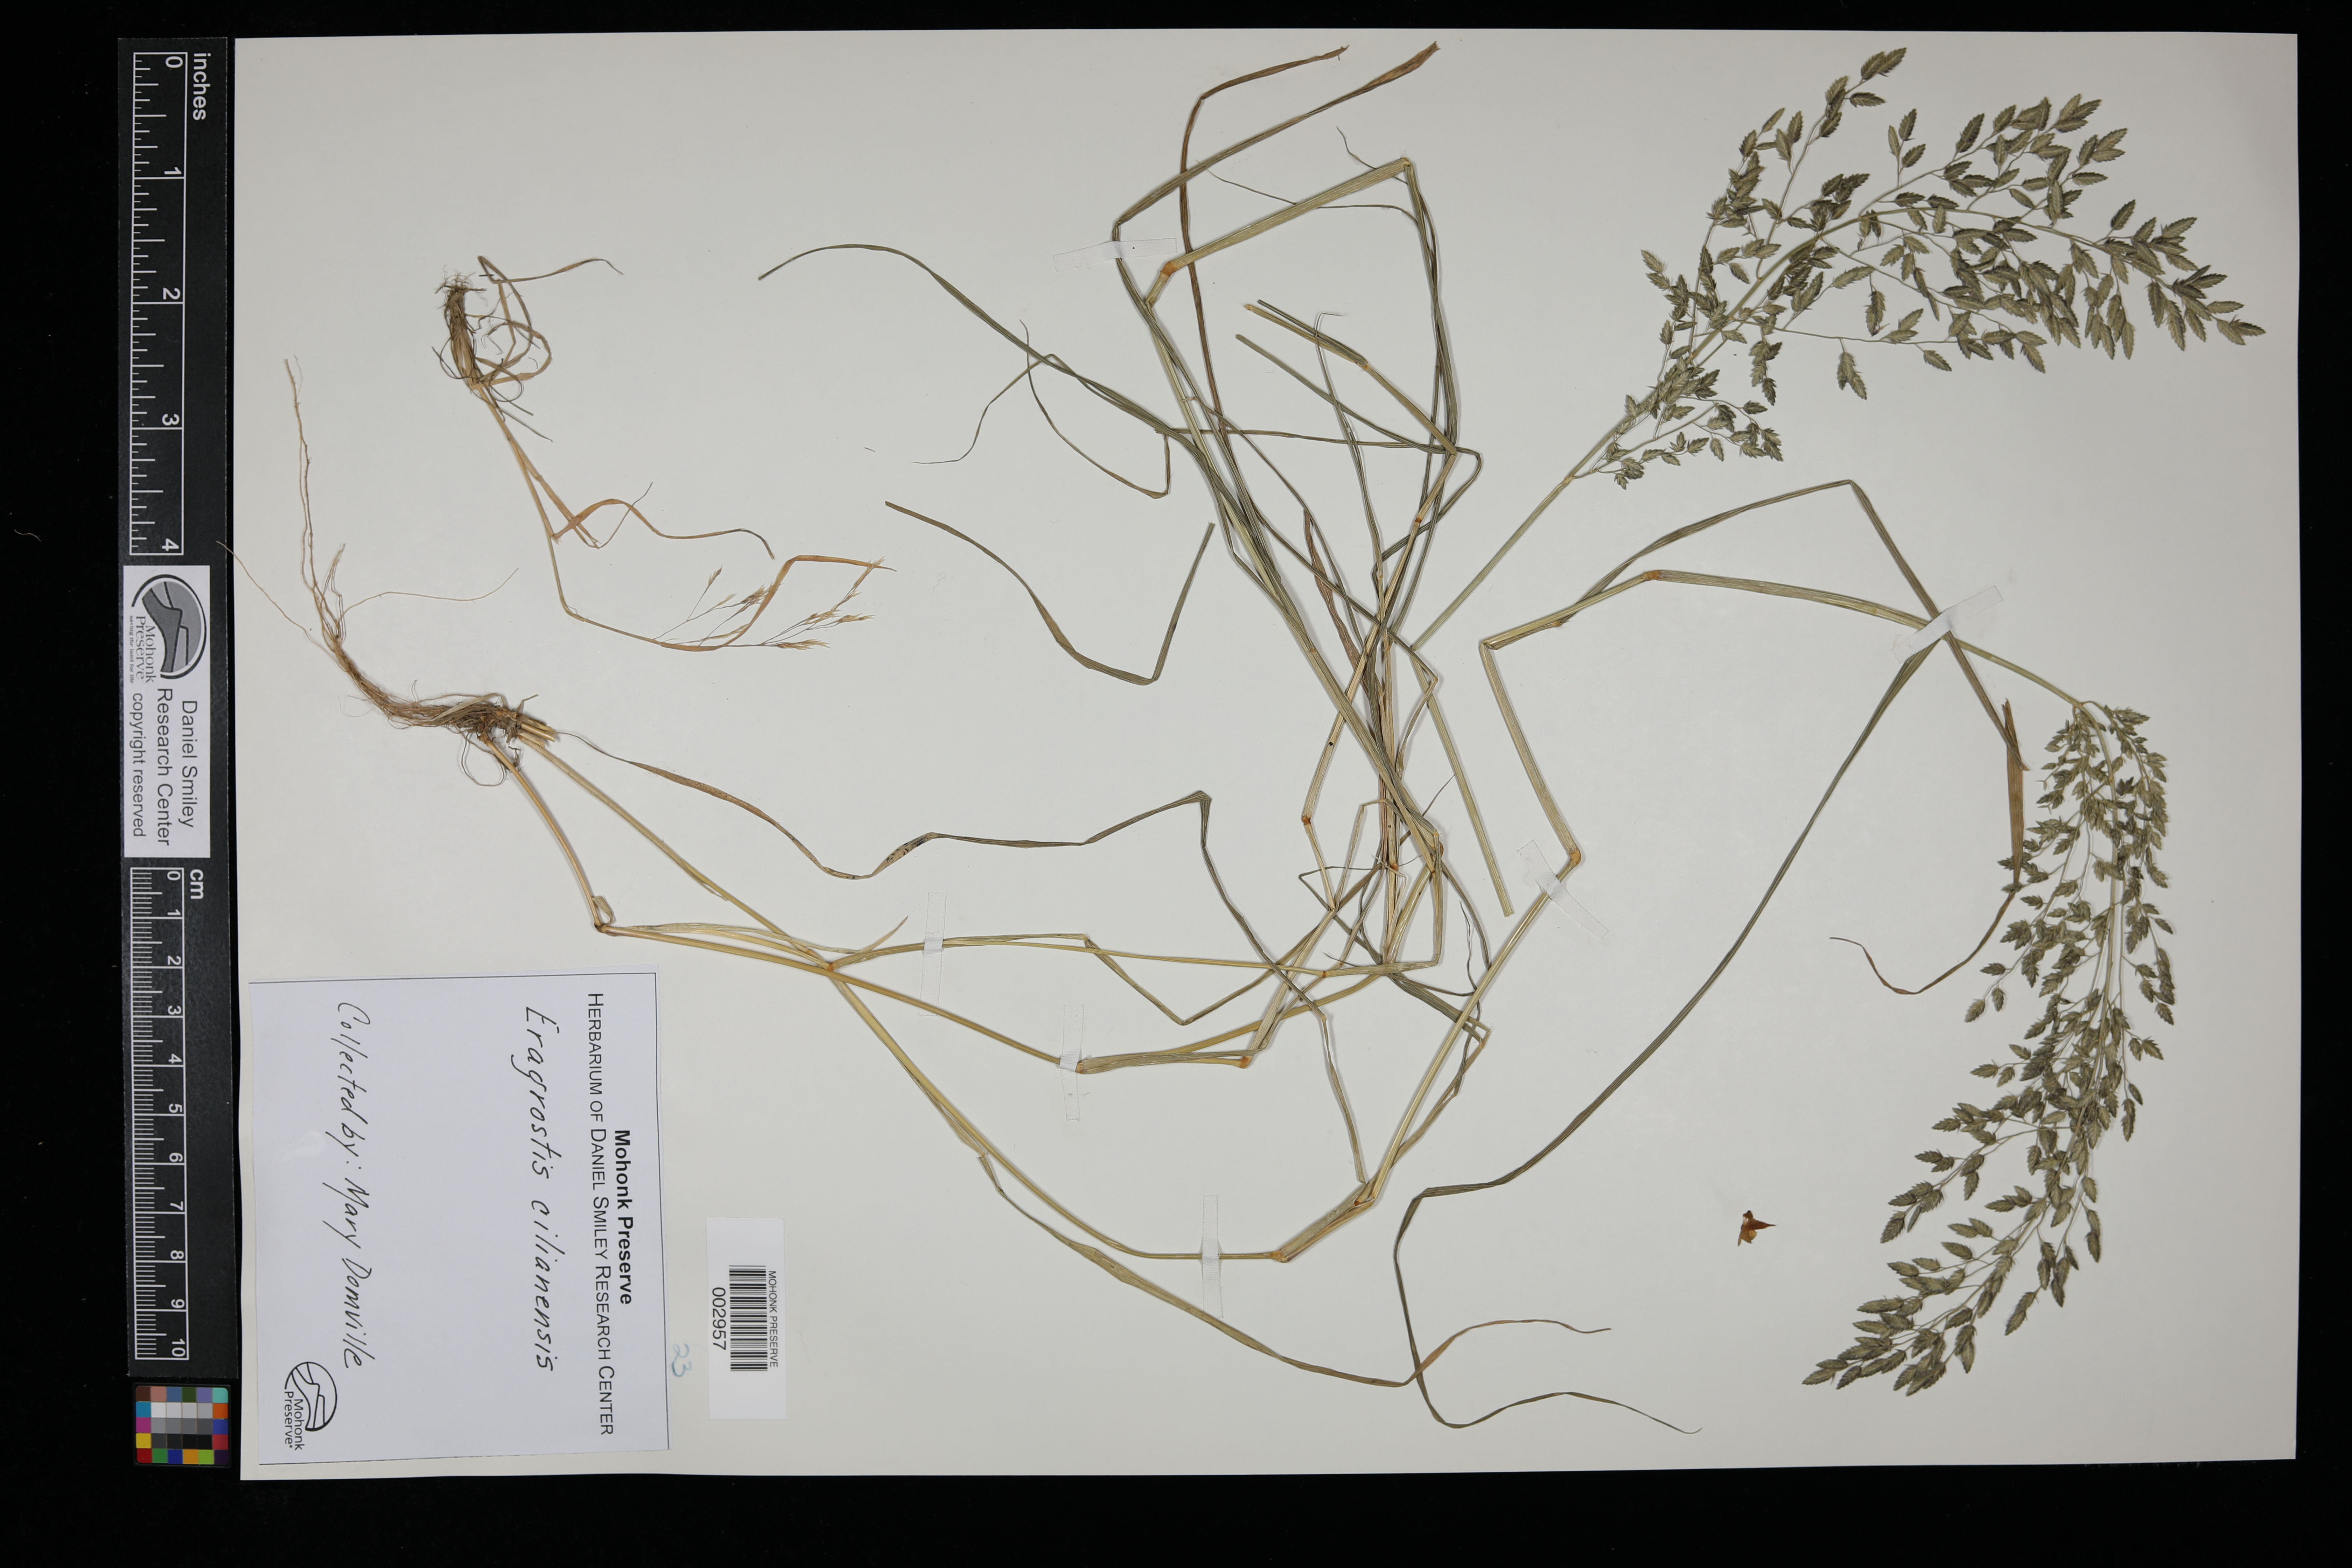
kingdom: Plantae
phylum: Tracheophyta
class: Liliopsida
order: Poales
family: Poaceae
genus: Eragrostis
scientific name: Eragrostis cilianensis
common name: Stinkgrass
